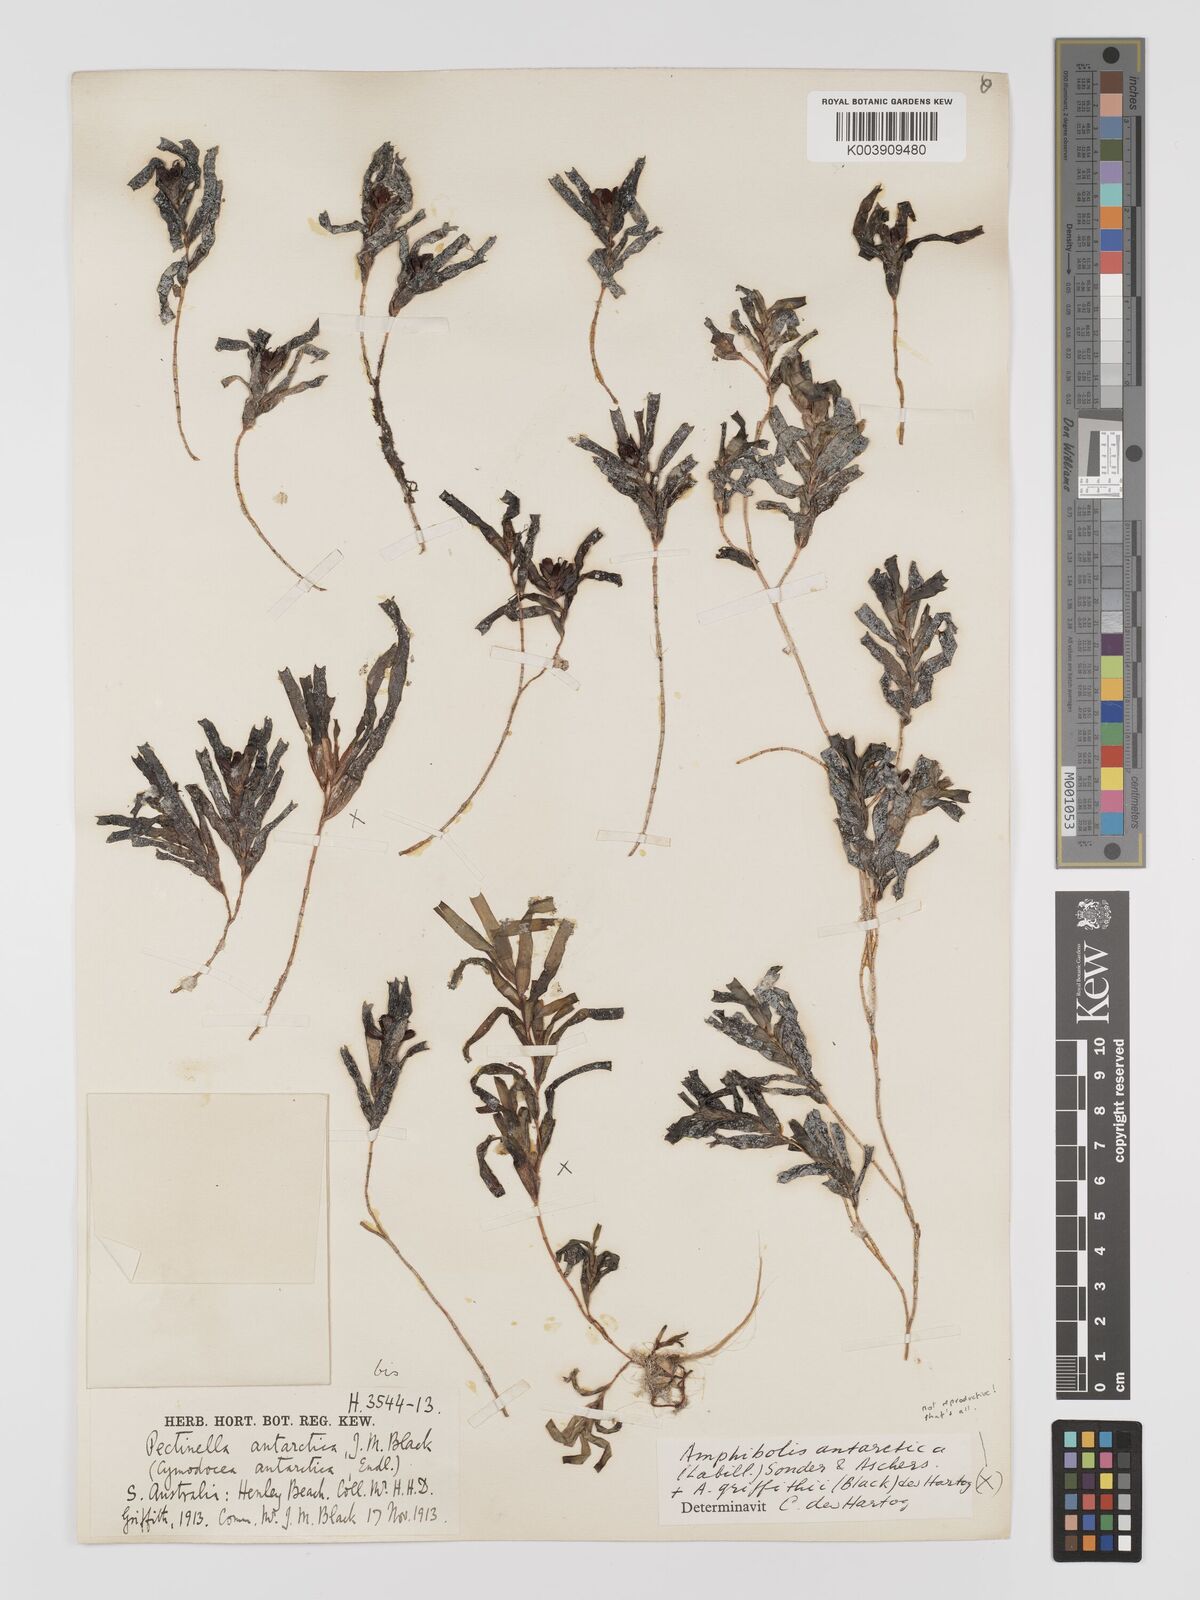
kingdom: Plantae
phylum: Tracheophyta
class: Liliopsida
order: Alismatales
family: Cymodoceaceae
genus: Amphibolis
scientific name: Amphibolis antarctica
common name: Species code: aa
